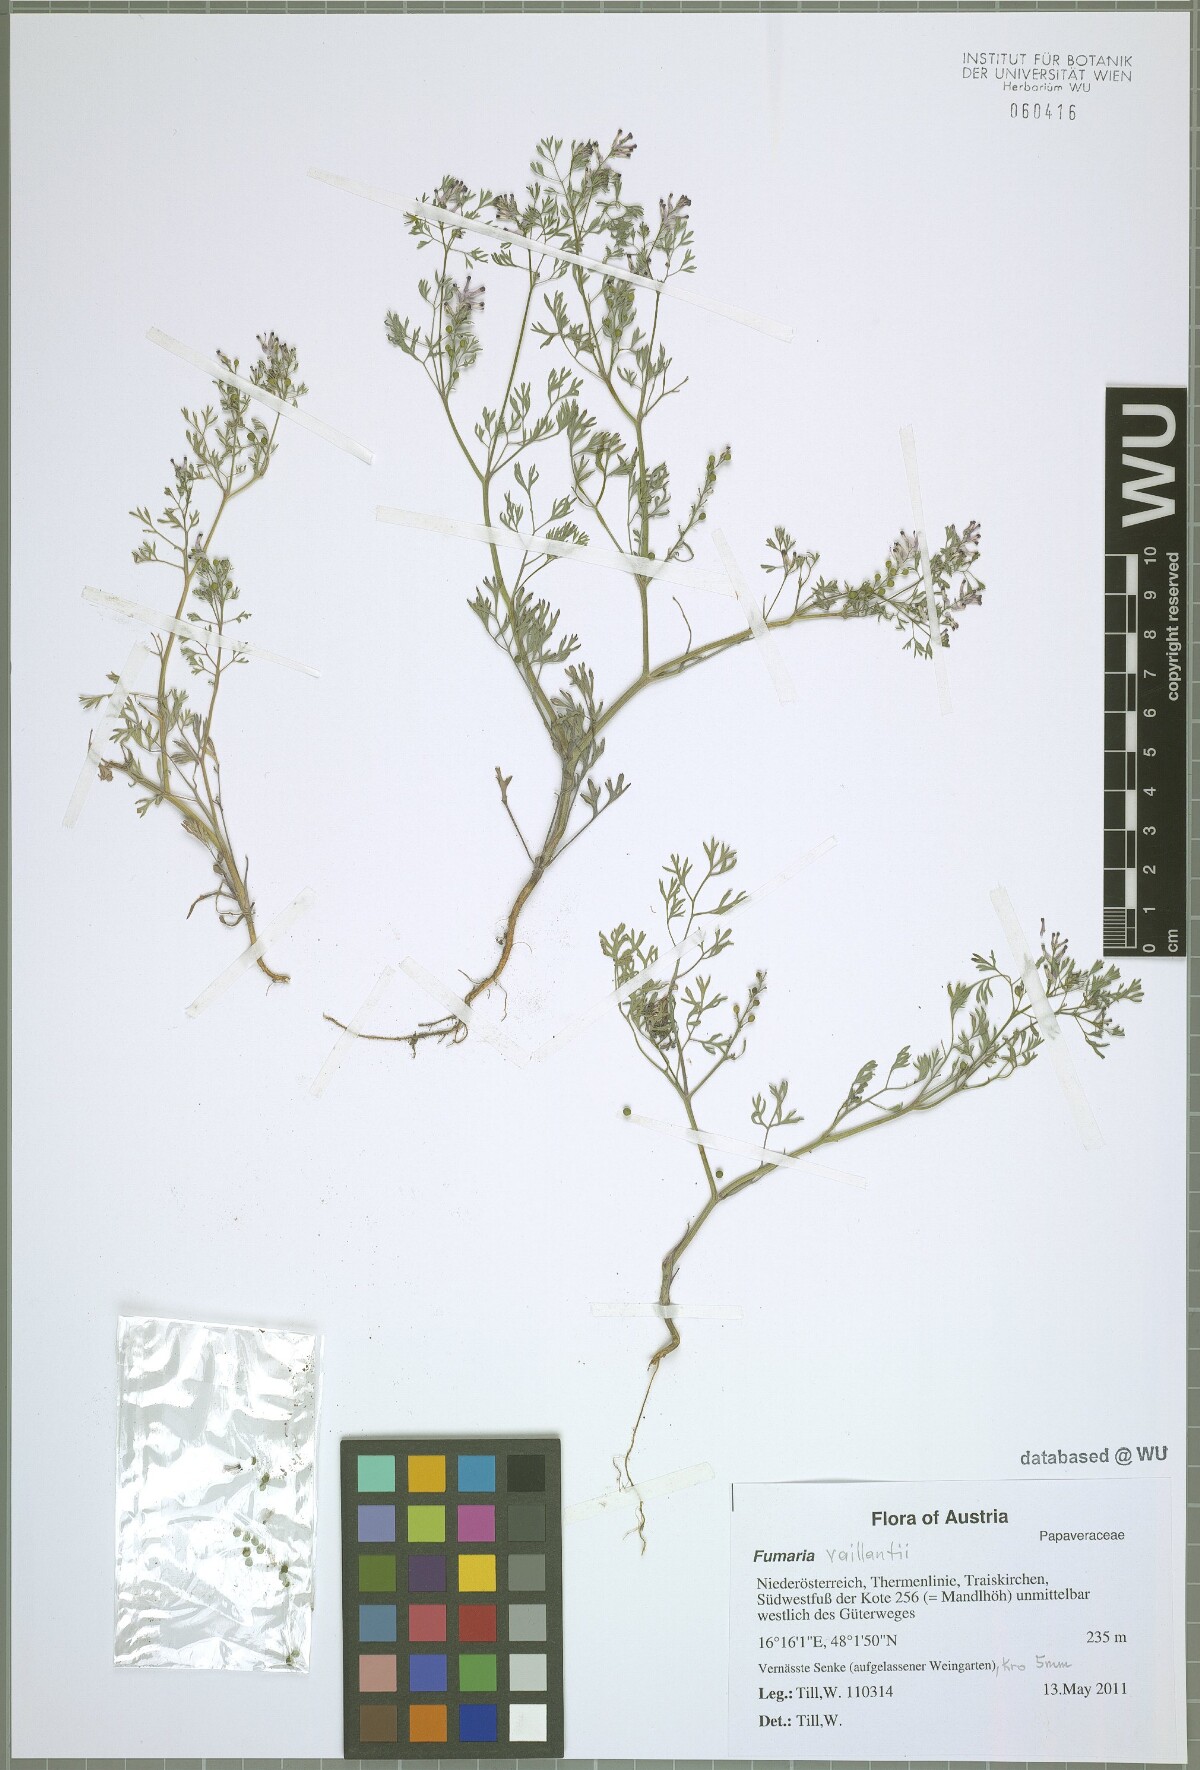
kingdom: Plantae
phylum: Tracheophyta
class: Magnoliopsida
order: Ranunculales
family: Papaveraceae
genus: Fumaria
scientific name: Fumaria vaillantii
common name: Few-flowered fumitory
